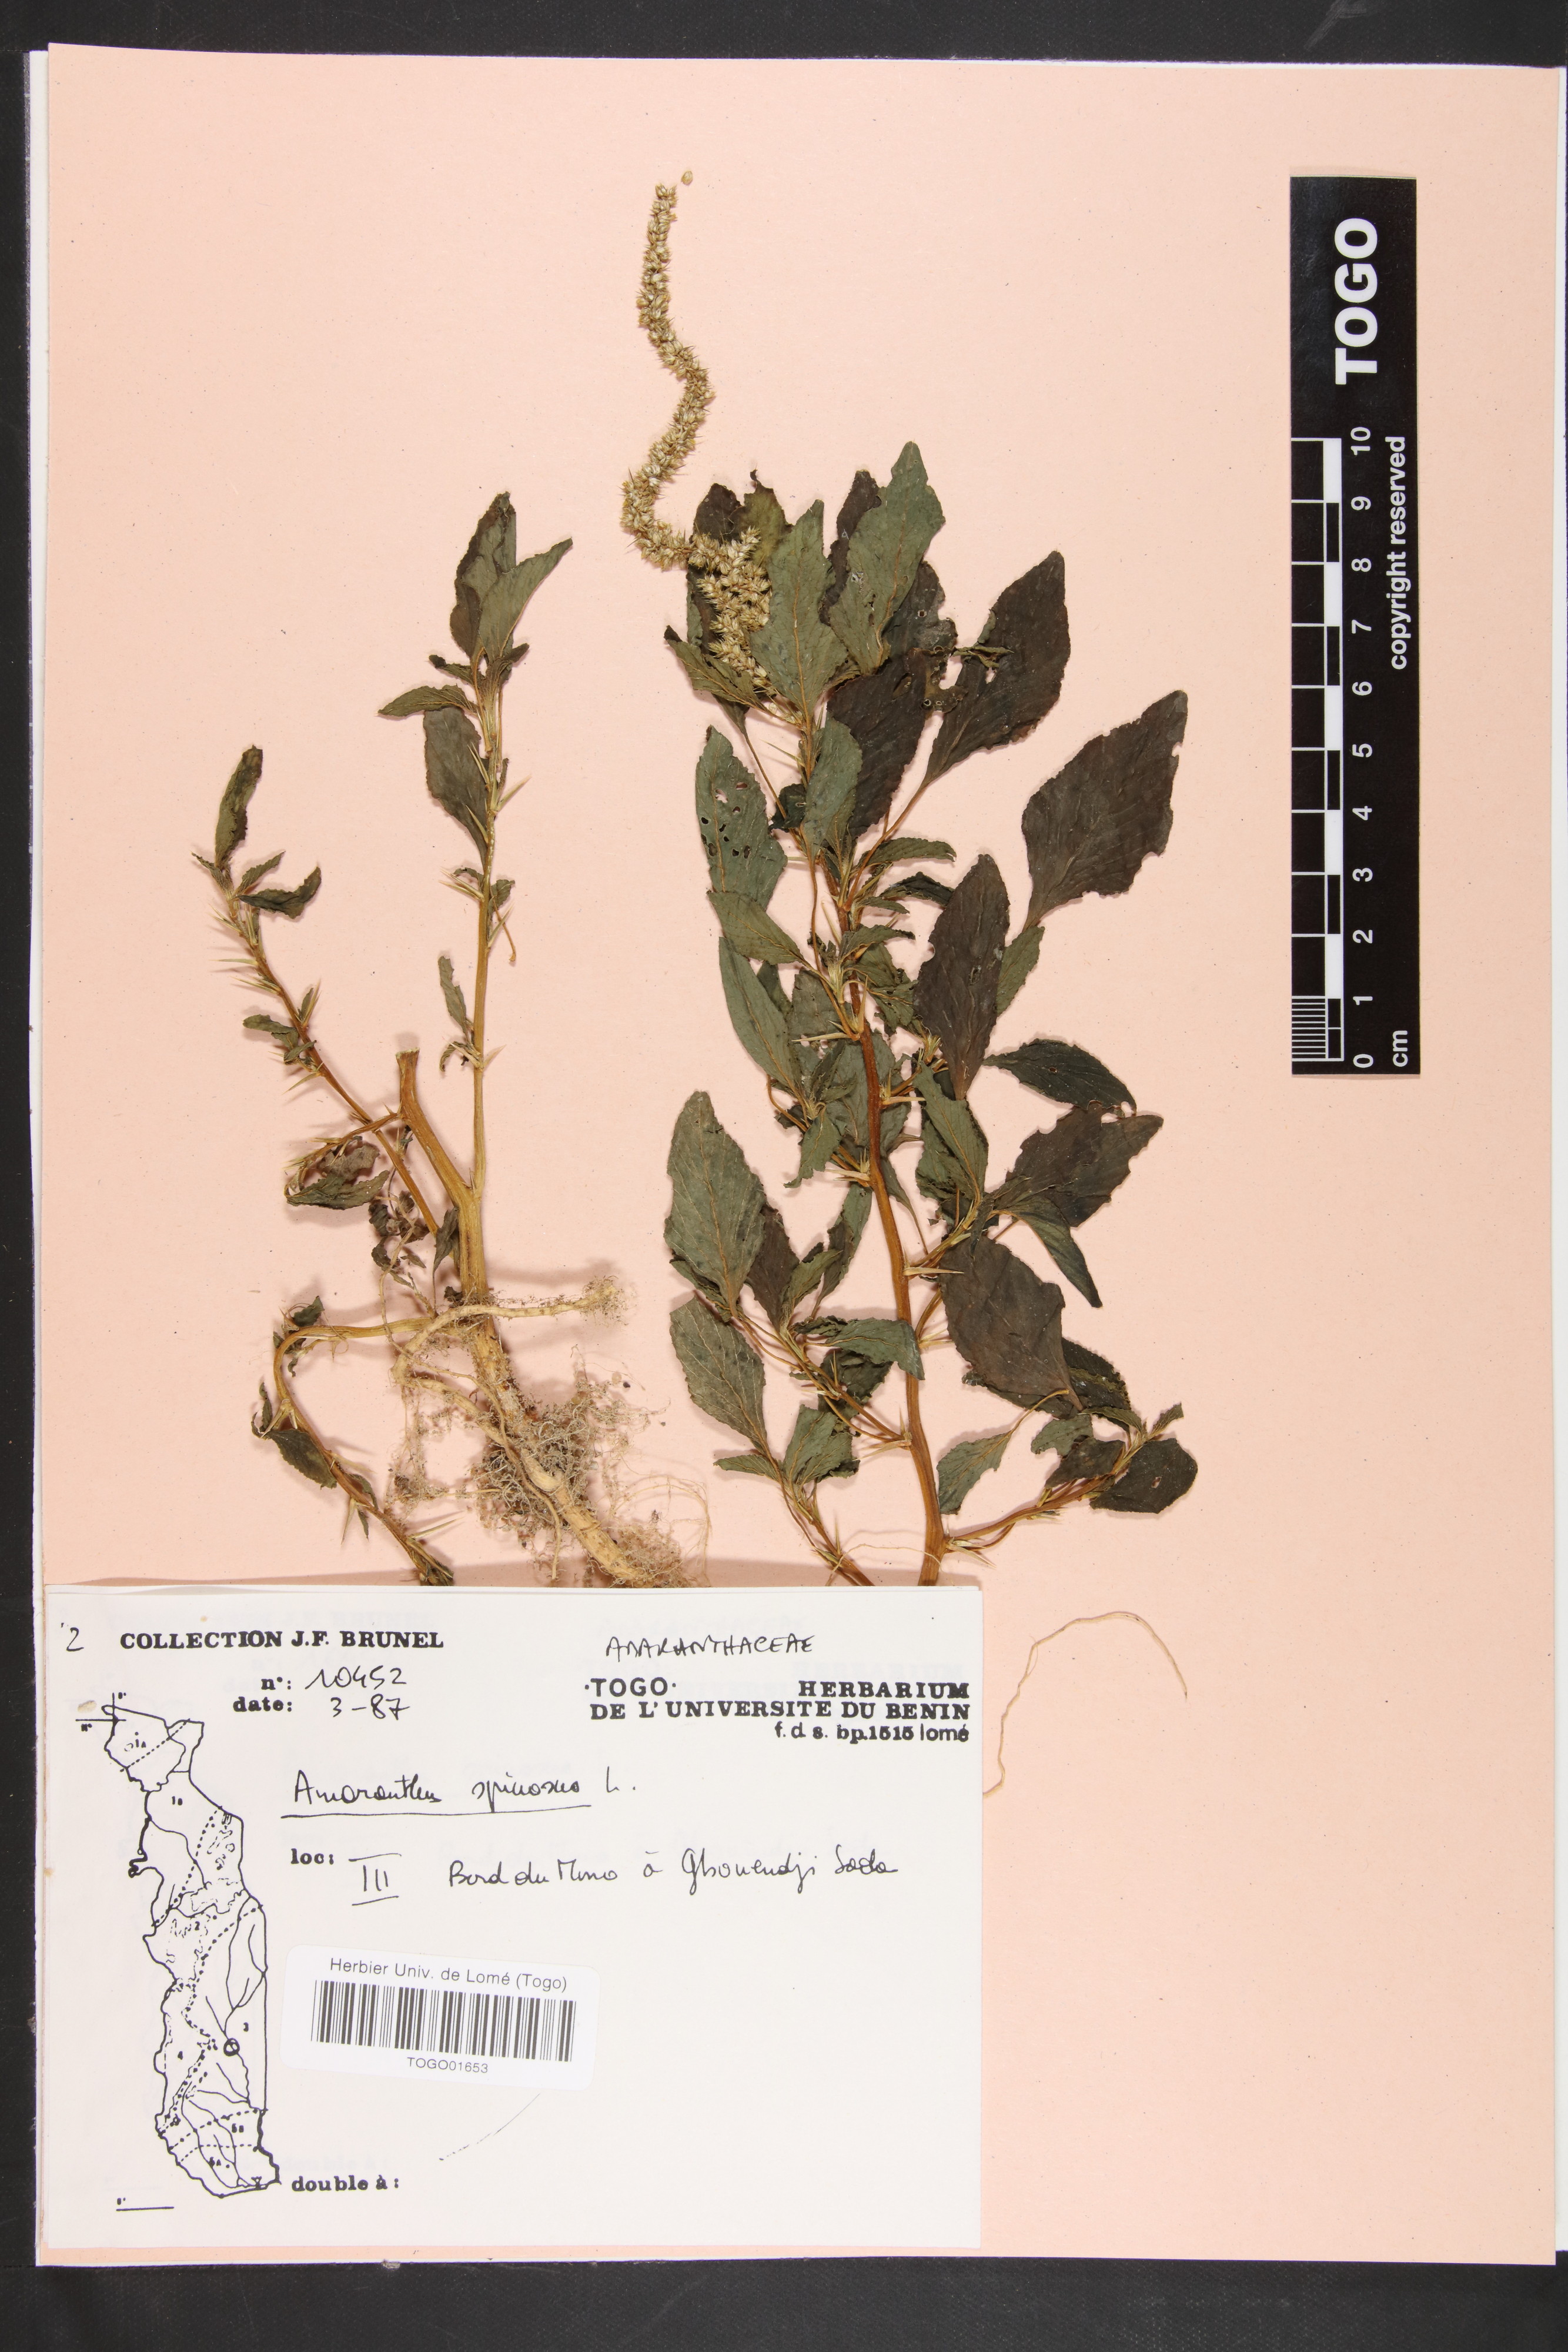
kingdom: Plantae
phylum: Tracheophyta
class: Magnoliopsida
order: Caryophyllales
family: Amaranthaceae
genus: Amaranthus
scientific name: Amaranthus spinosus
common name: Spiny amaranth
